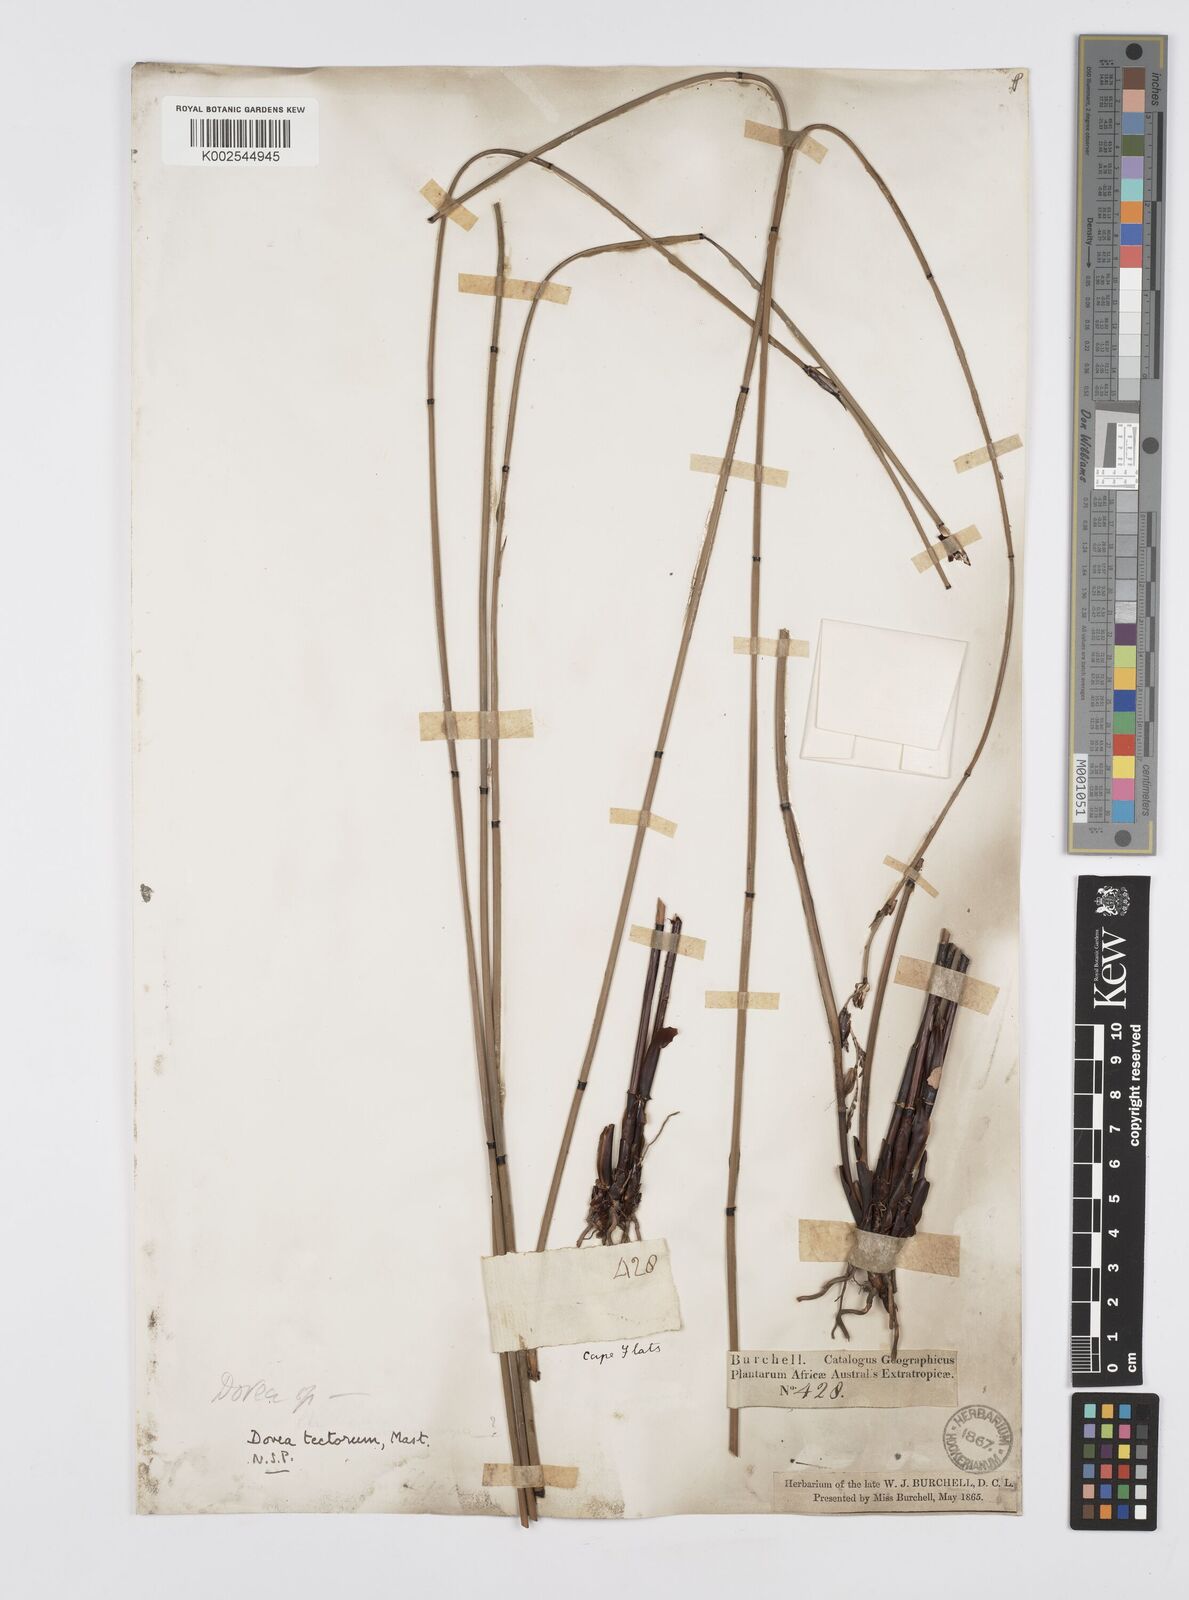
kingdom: Plantae
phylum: Tracheophyta
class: Liliopsida
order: Poales
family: Restionaceae
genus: Elegia
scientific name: Elegia tectorum
